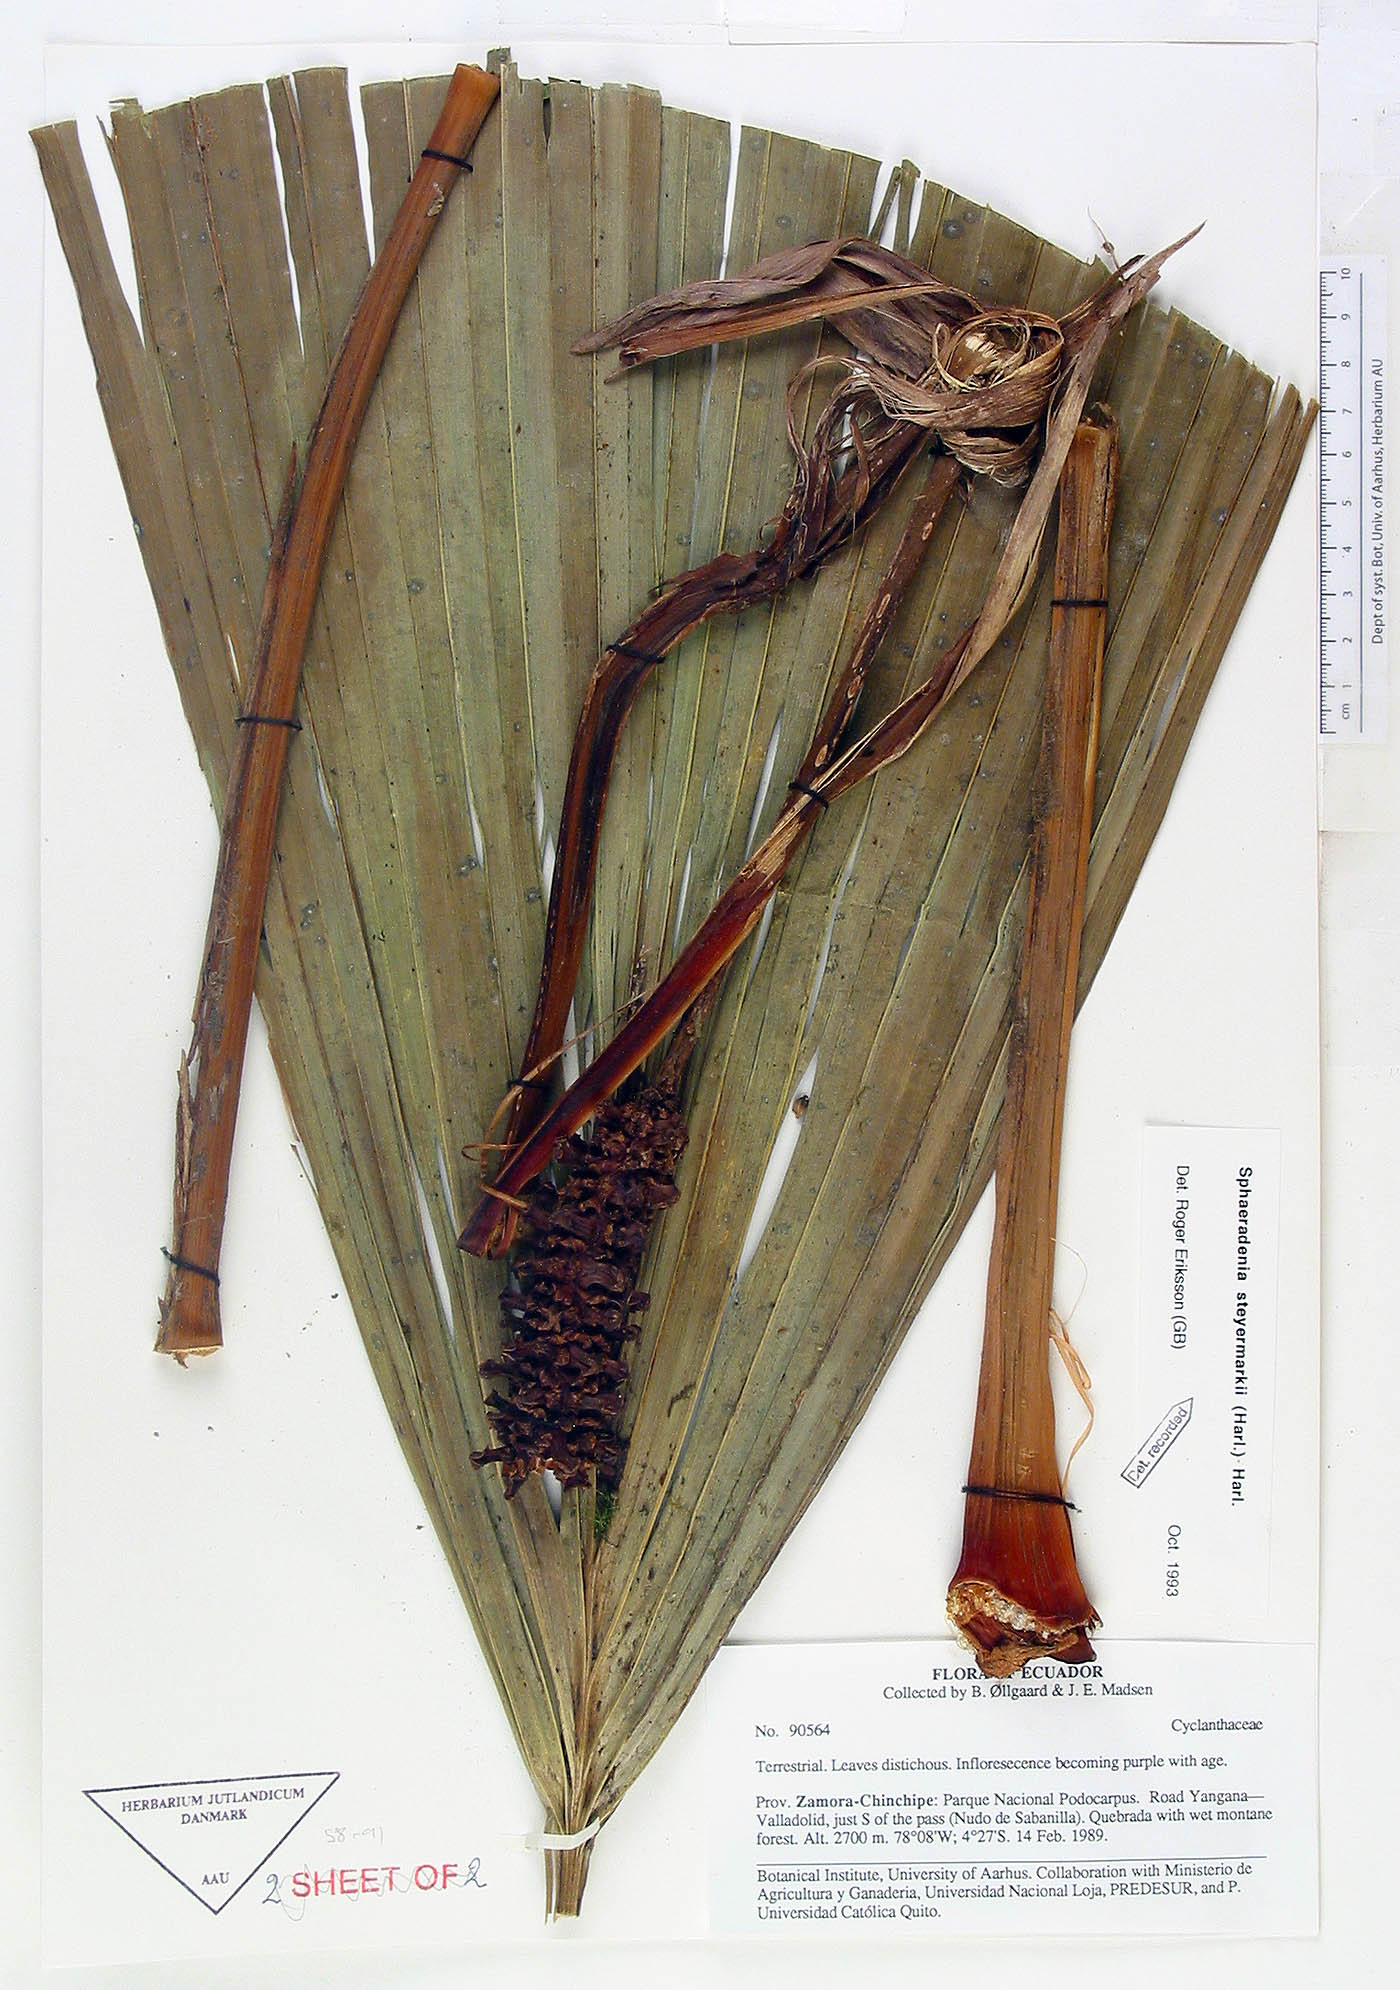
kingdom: Plantae
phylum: Tracheophyta
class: Liliopsida
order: Pandanales
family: Cyclanthaceae
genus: Sphaeradenia
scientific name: Sphaeradenia steyermarkii
